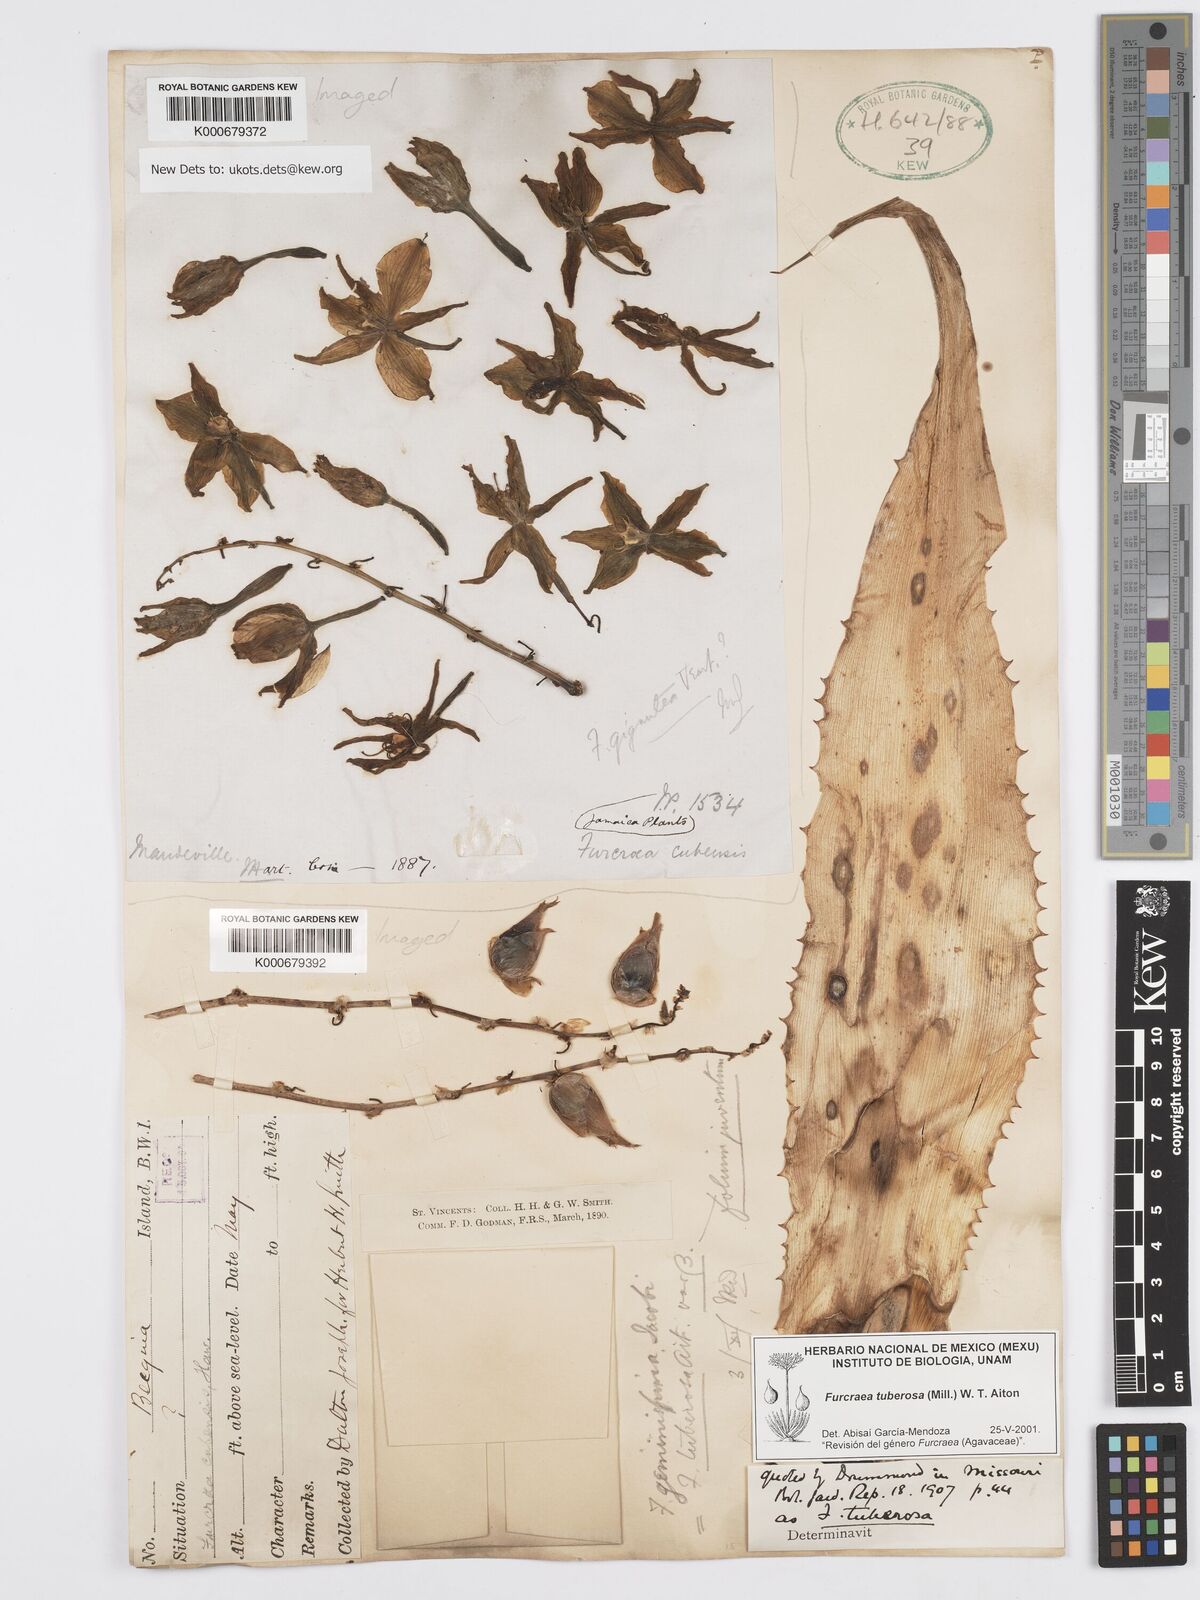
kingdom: Plantae
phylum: Tracheophyta
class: Liliopsida
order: Asparagales
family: Asparagaceae
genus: Furcraea
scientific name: Furcraea tuberosa
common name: Karata
